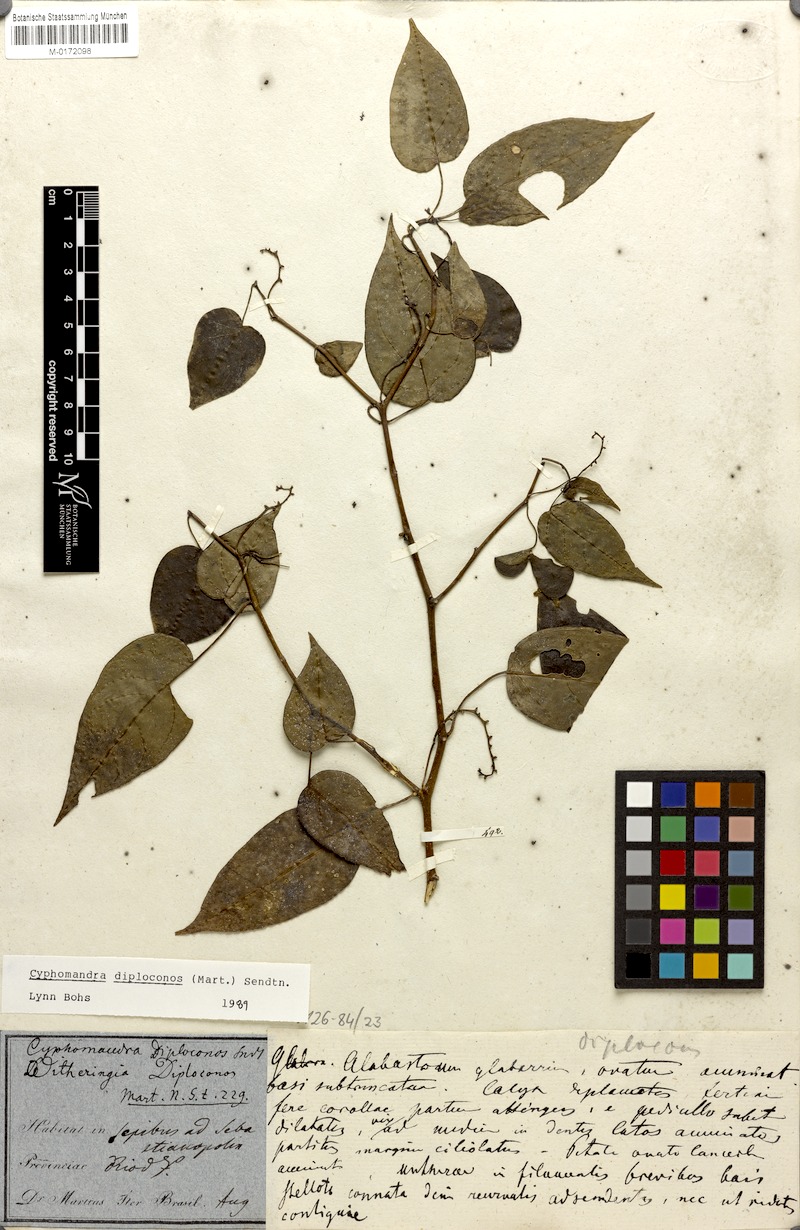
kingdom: Plantae
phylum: Tracheophyta
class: Magnoliopsida
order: Solanales
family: Solanaceae
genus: Solanum
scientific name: Solanum diploconos
